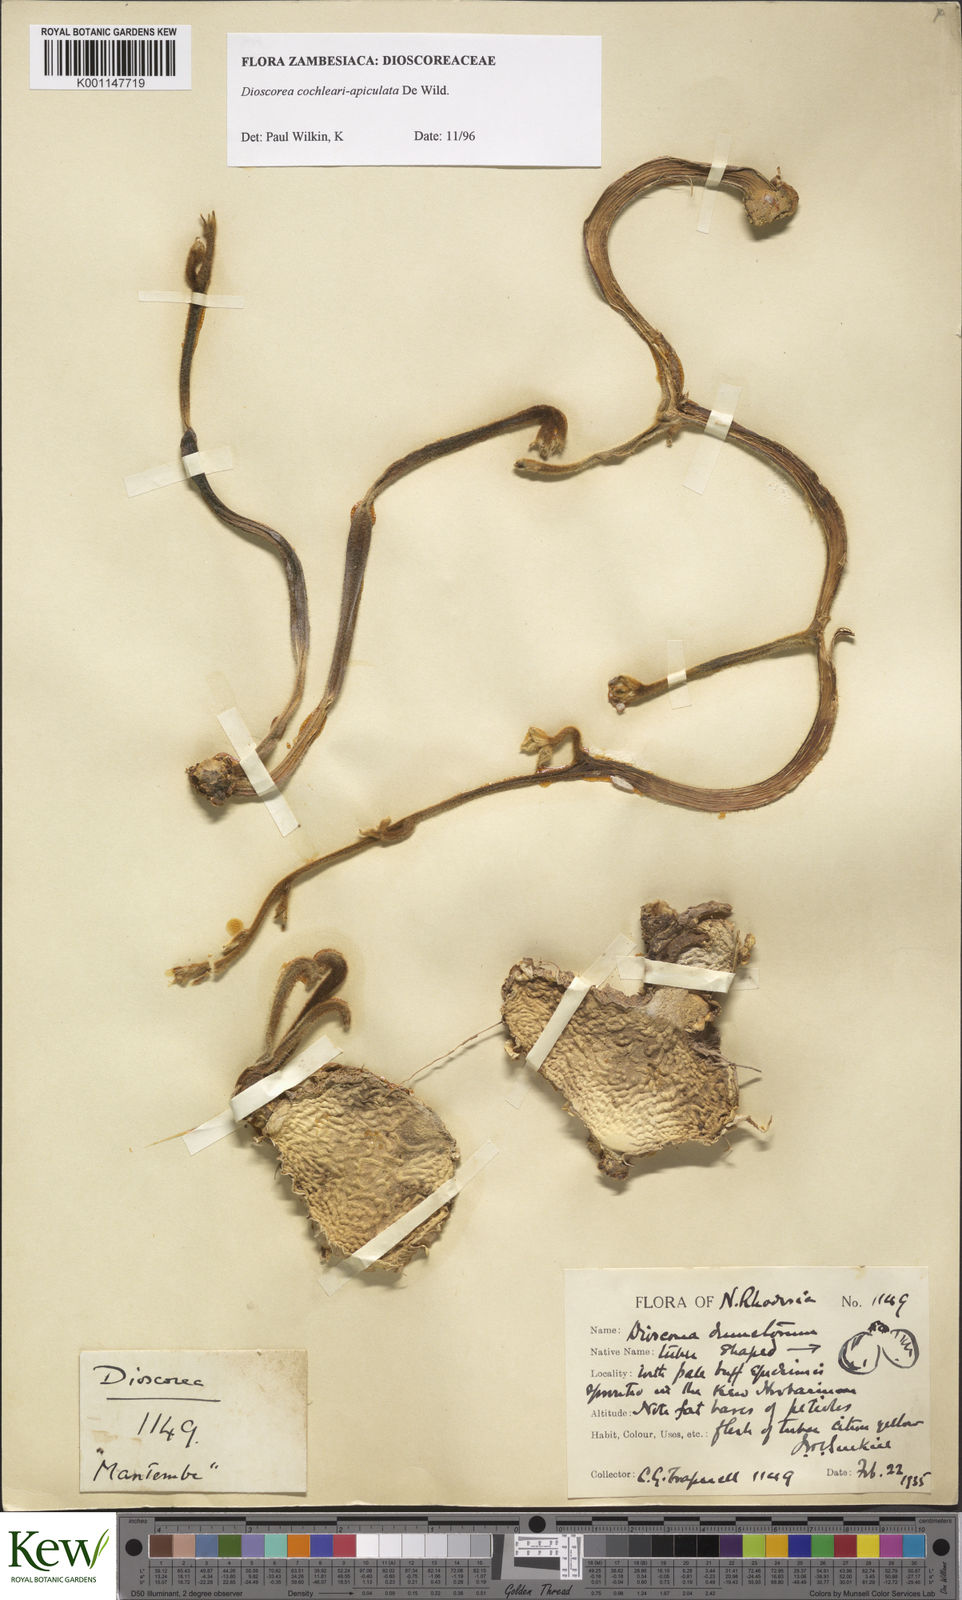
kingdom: Plantae
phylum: Tracheophyta
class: Liliopsida
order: Dioscoreales
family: Dioscoreaceae
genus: Dioscorea
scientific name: Dioscorea cochleariapiculata
